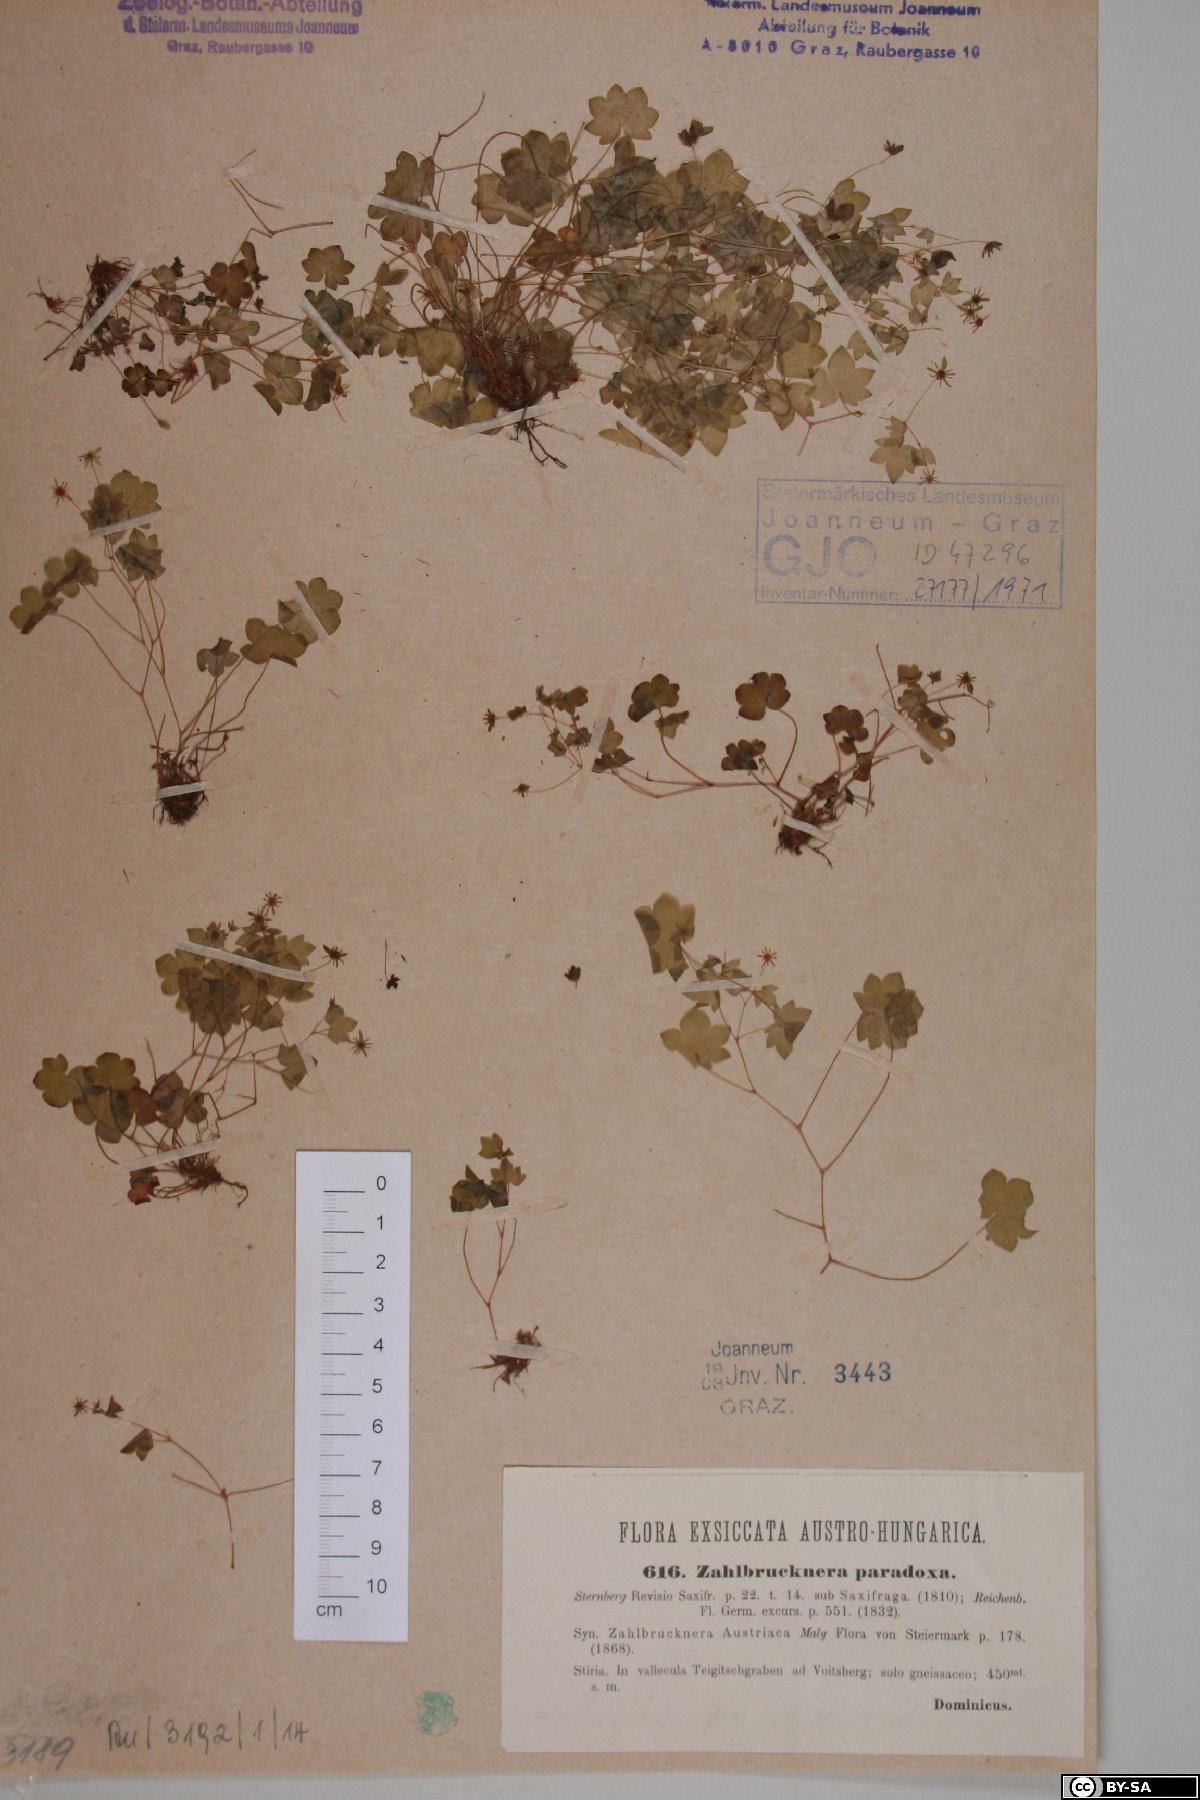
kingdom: Plantae
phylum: Tracheophyta
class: Magnoliopsida
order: Saxifragales
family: Saxifragaceae
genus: Saxifraga
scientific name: Saxifraga paradoxa
